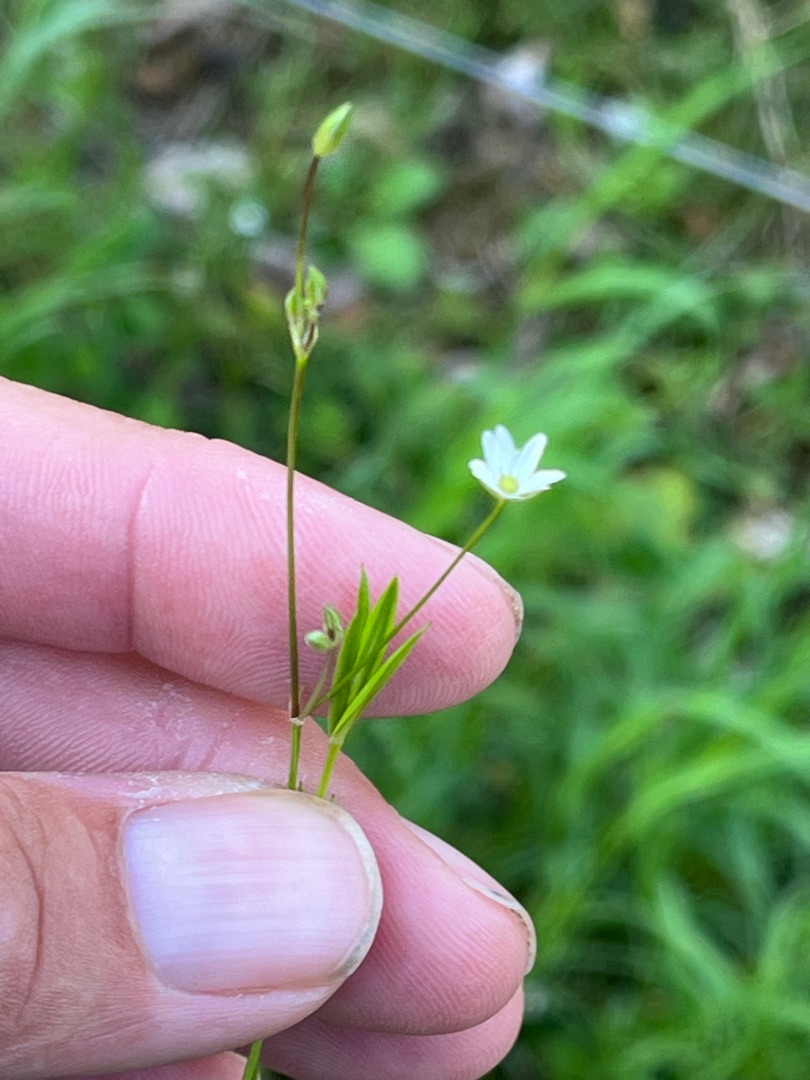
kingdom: Plantae
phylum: Tracheophyta
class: Magnoliopsida
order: Caryophyllales
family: Caryophyllaceae
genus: Stellaria
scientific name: Stellaria graminea
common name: Græsbladet fladstjerne
